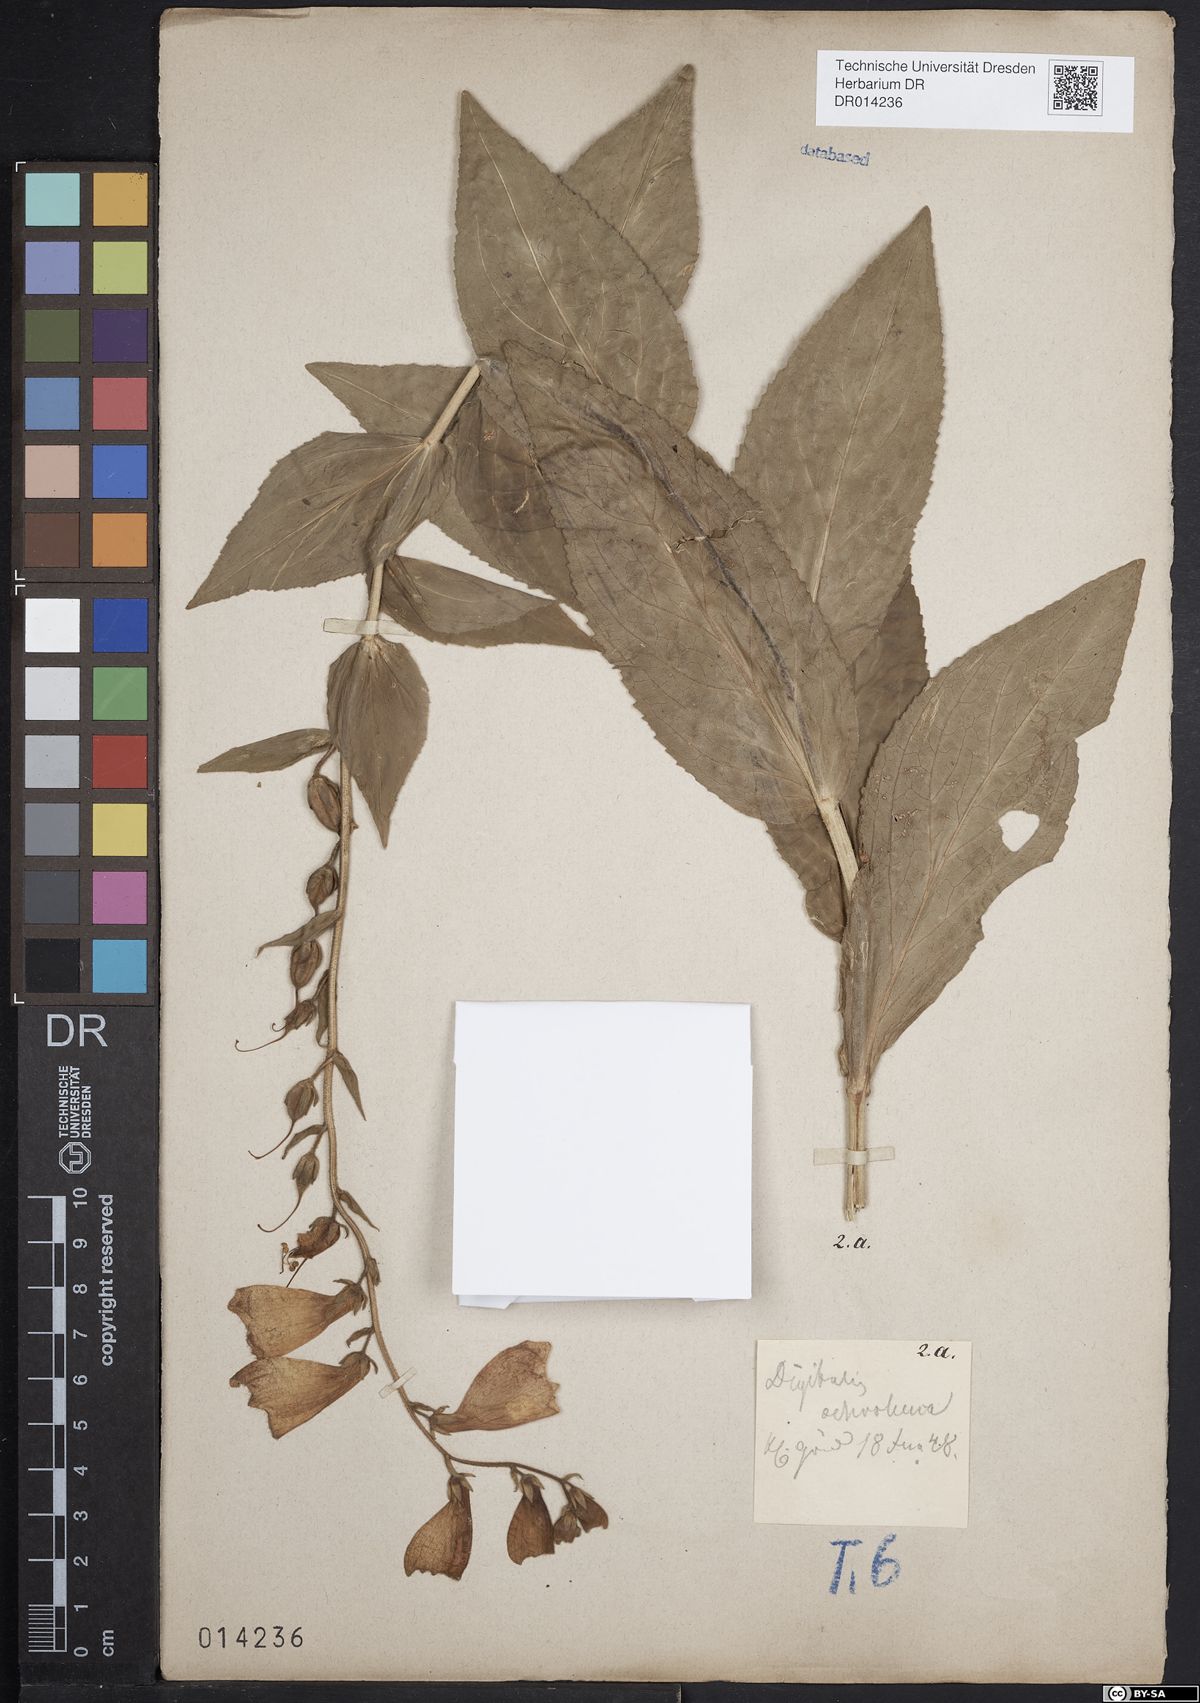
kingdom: Plantae
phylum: Tracheophyta
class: Magnoliopsida
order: Lamiales
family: Plantaginaceae
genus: Digitalis
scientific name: Digitalis grandiflora
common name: Yellow foxglove
